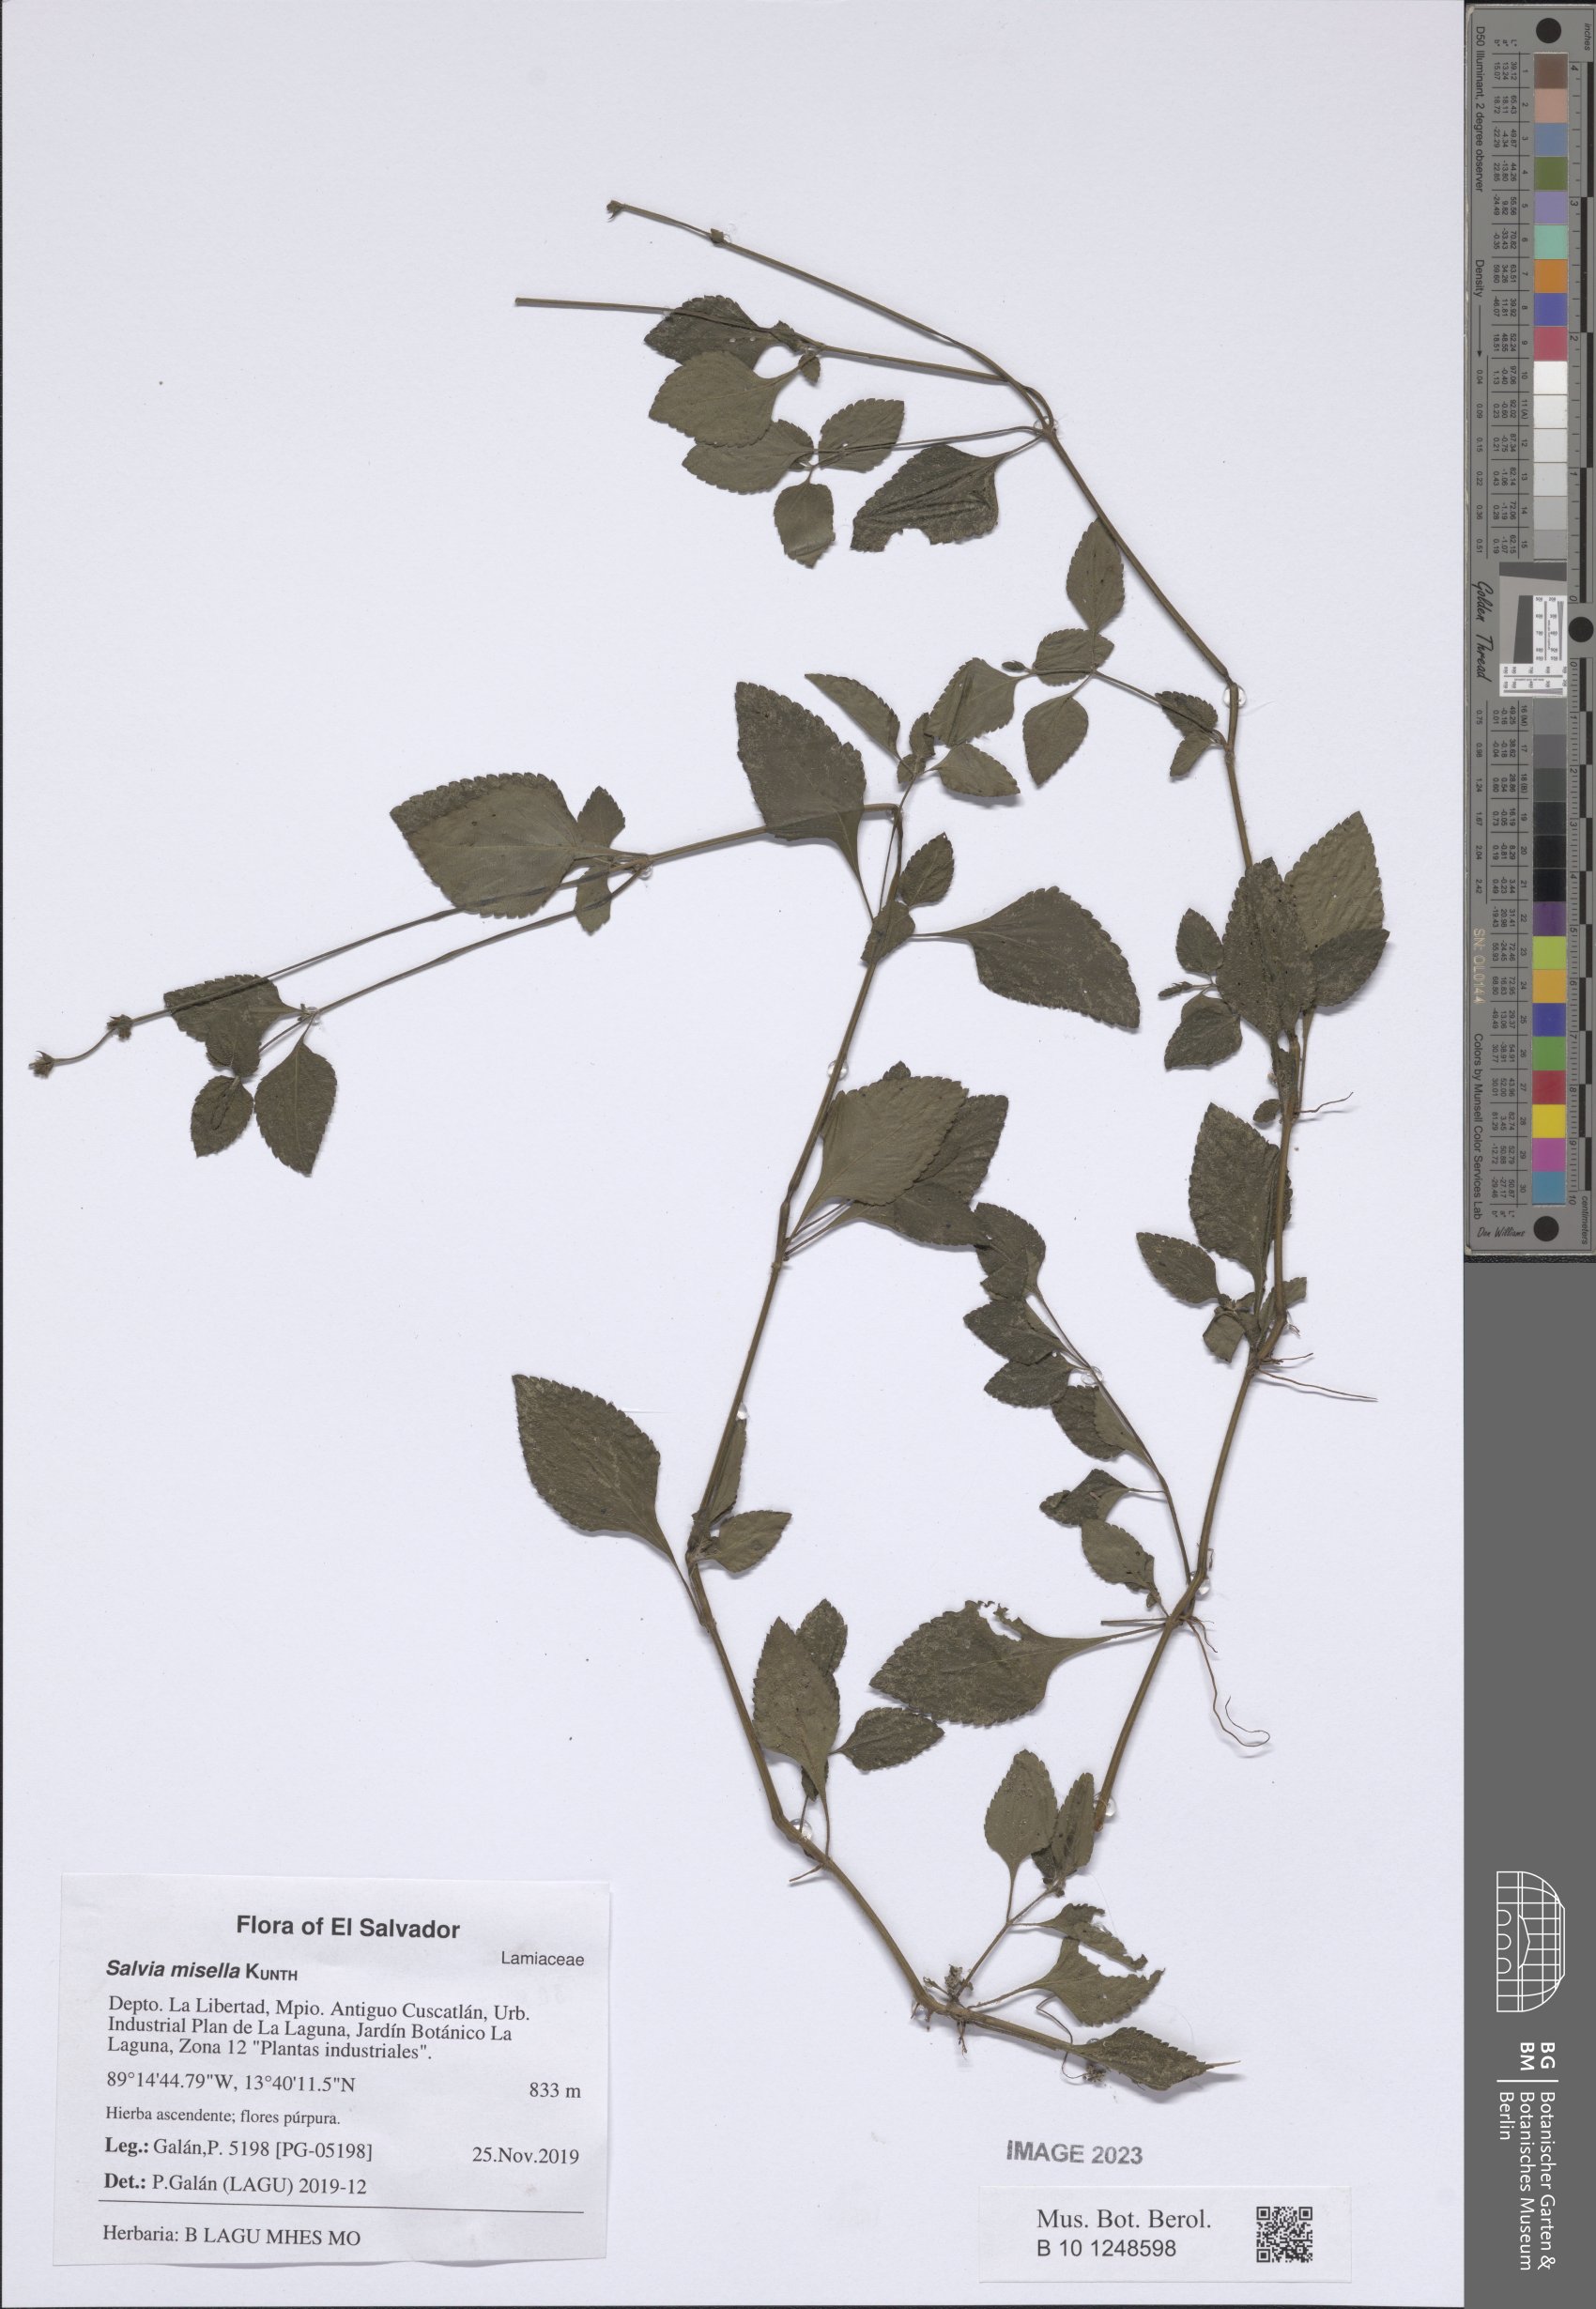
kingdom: Plantae
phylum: Tracheophyta
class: Magnoliopsida
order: Lamiales
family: Lamiaceae
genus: Salvia
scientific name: Salvia misella
